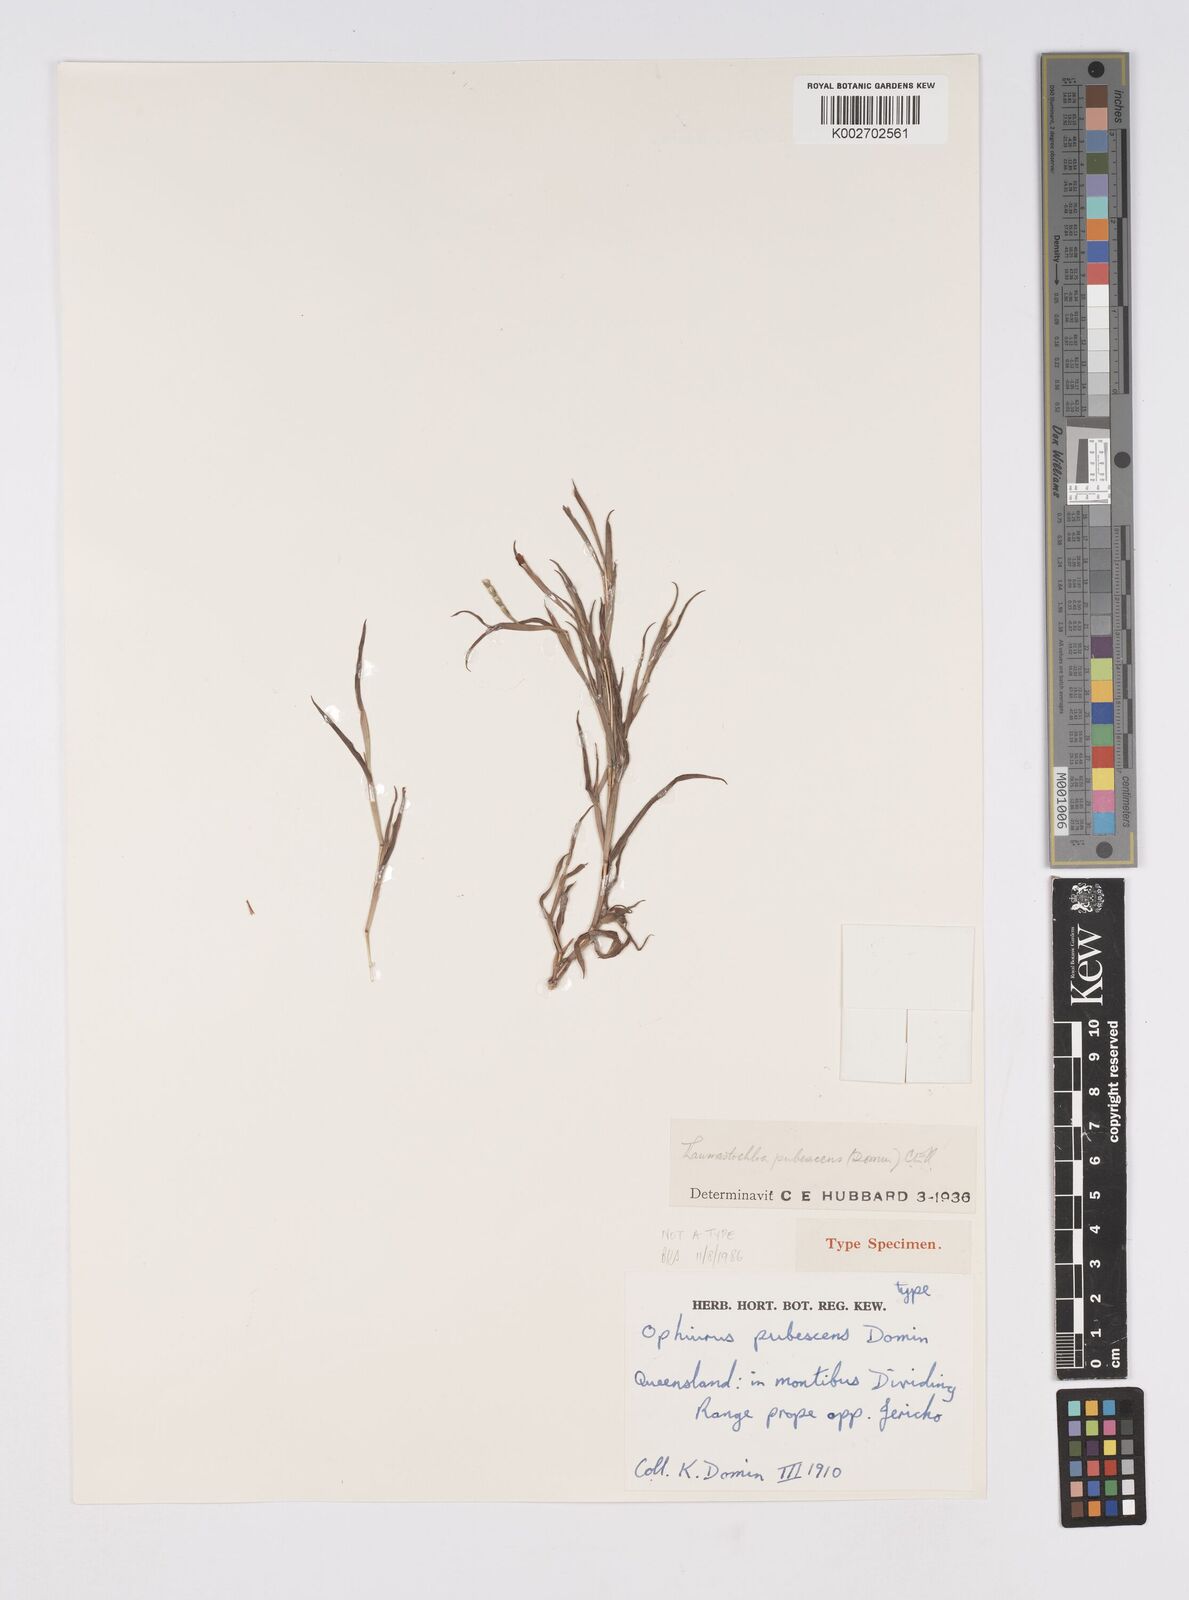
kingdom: Plantae
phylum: Tracheophyta
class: Liliopsida
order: Poales
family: Poaceae
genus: Thaumastochloa
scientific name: Thaumastochloa pubescens
